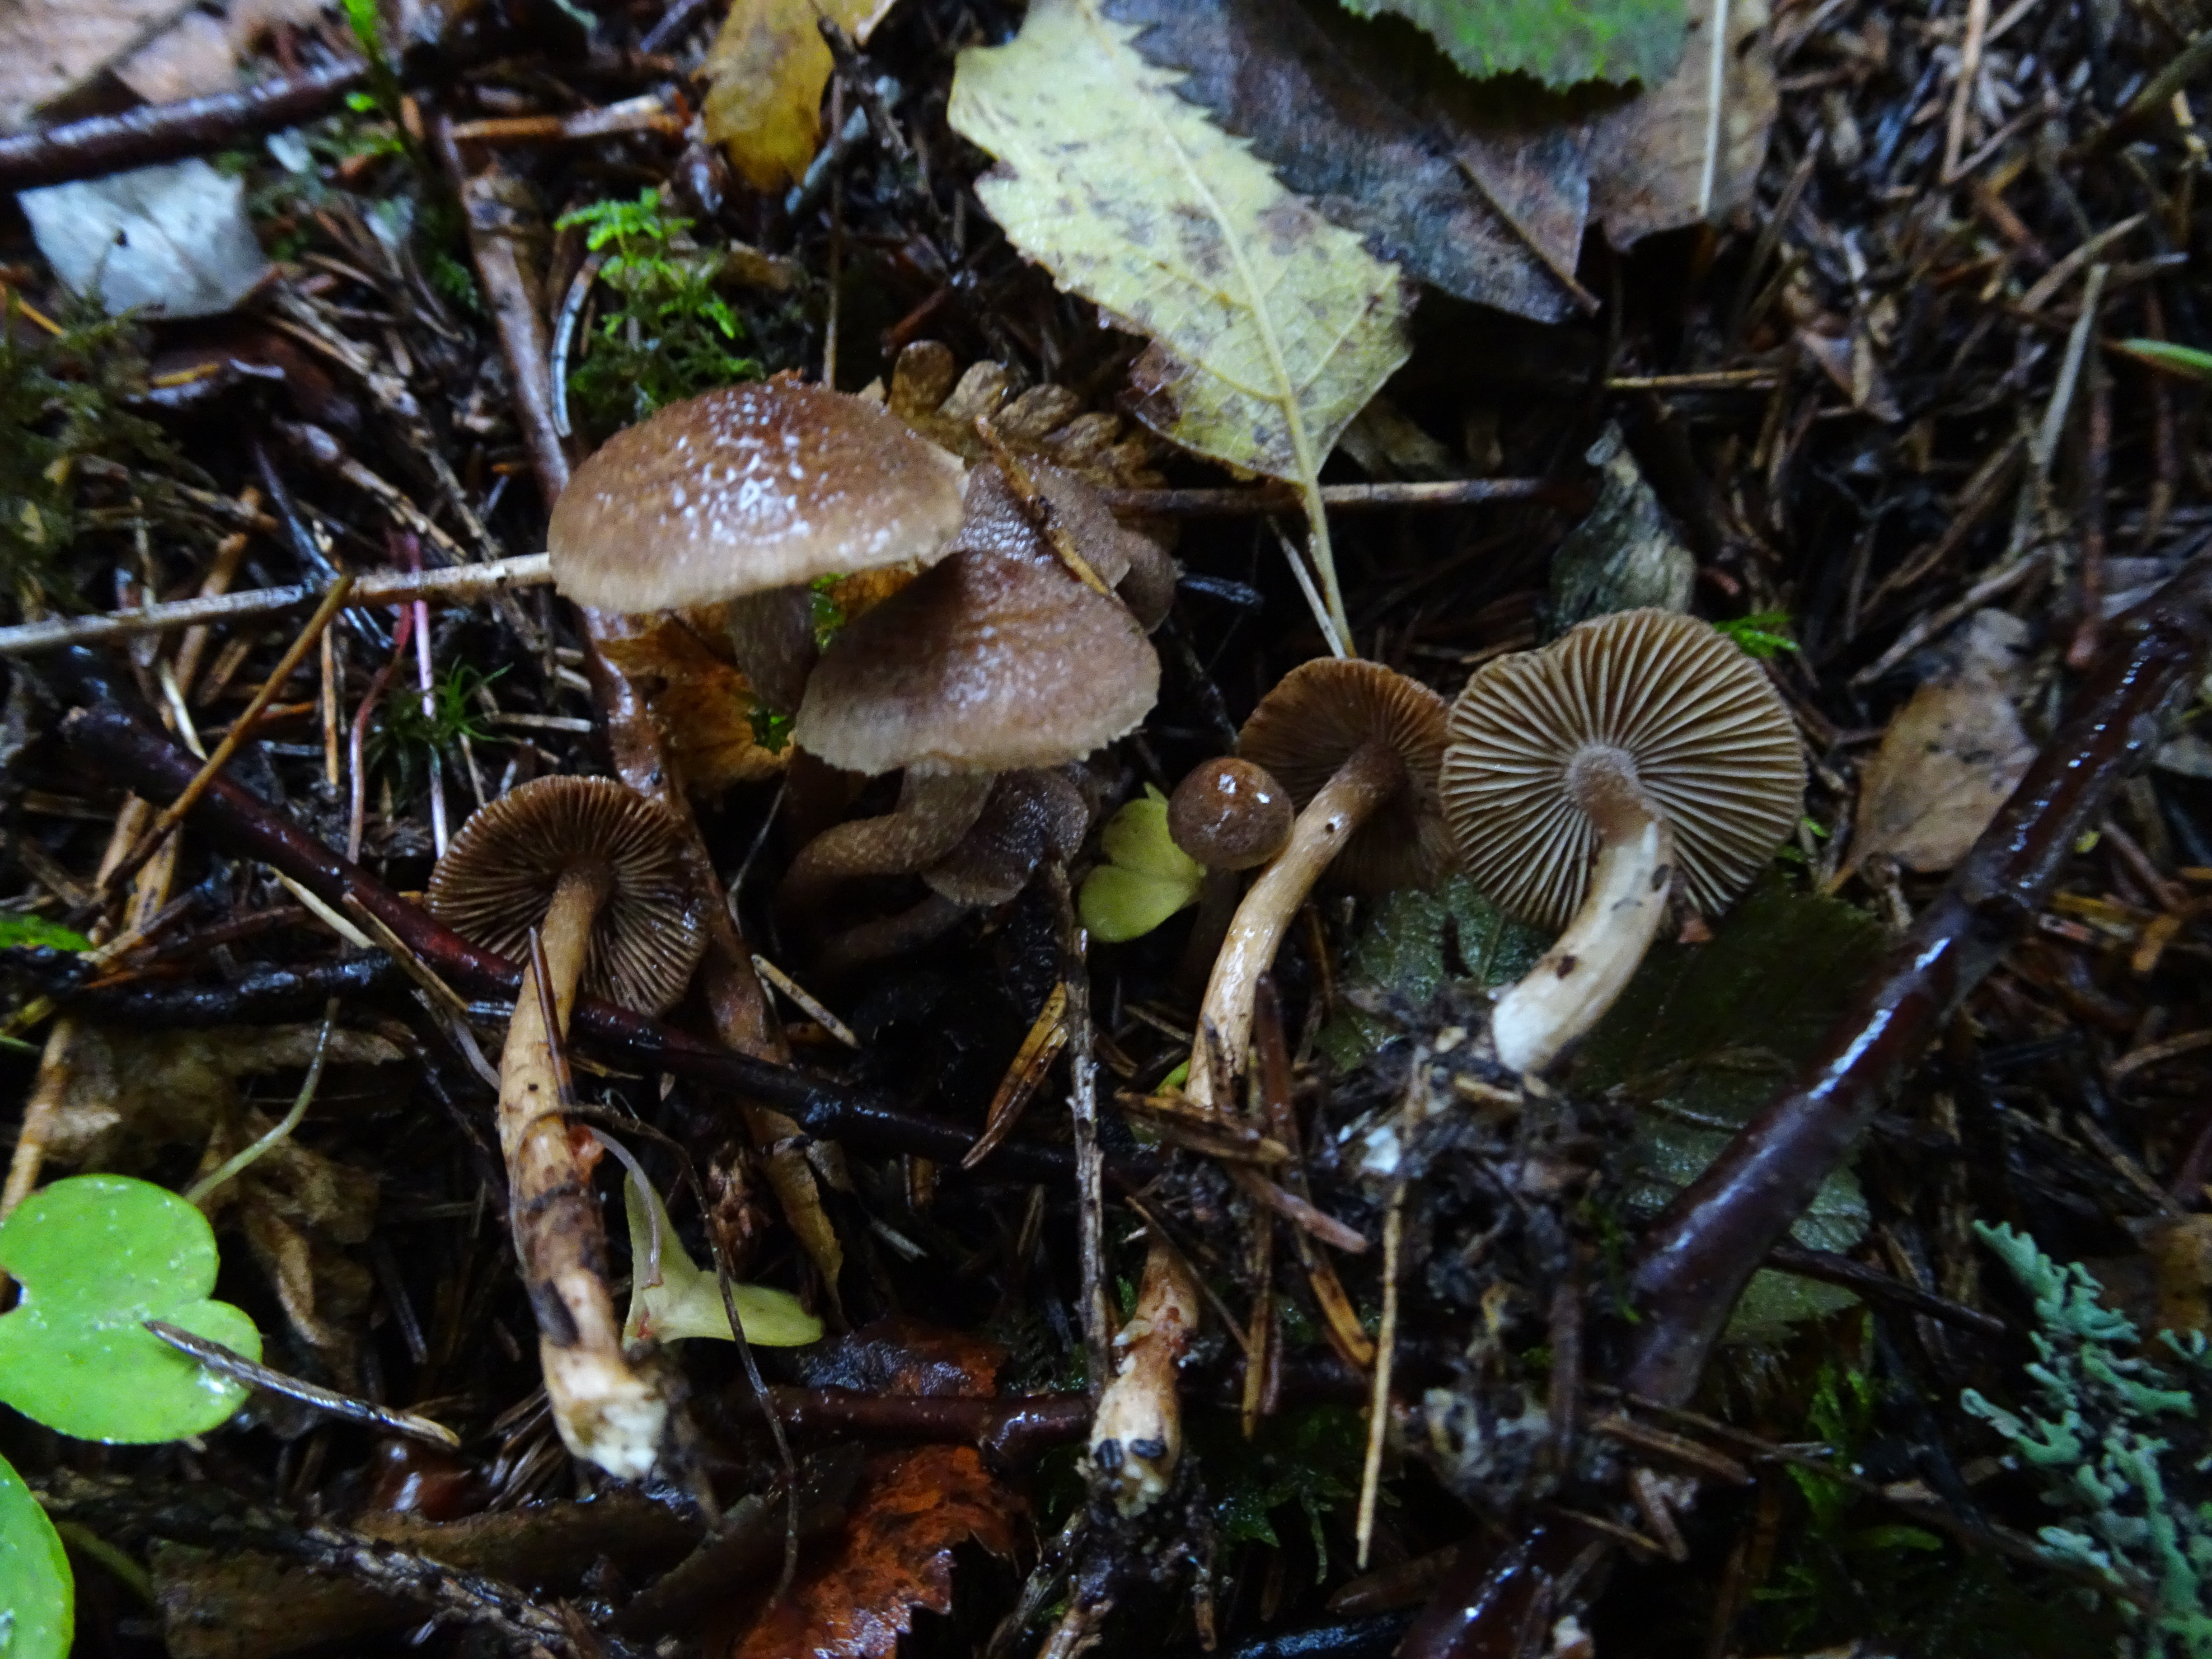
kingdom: Fungi
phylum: Basidiomycota
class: Agaricomycetes
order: Agaricales
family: Inocybaceae
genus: Inocybe
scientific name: Inocybe lacera
